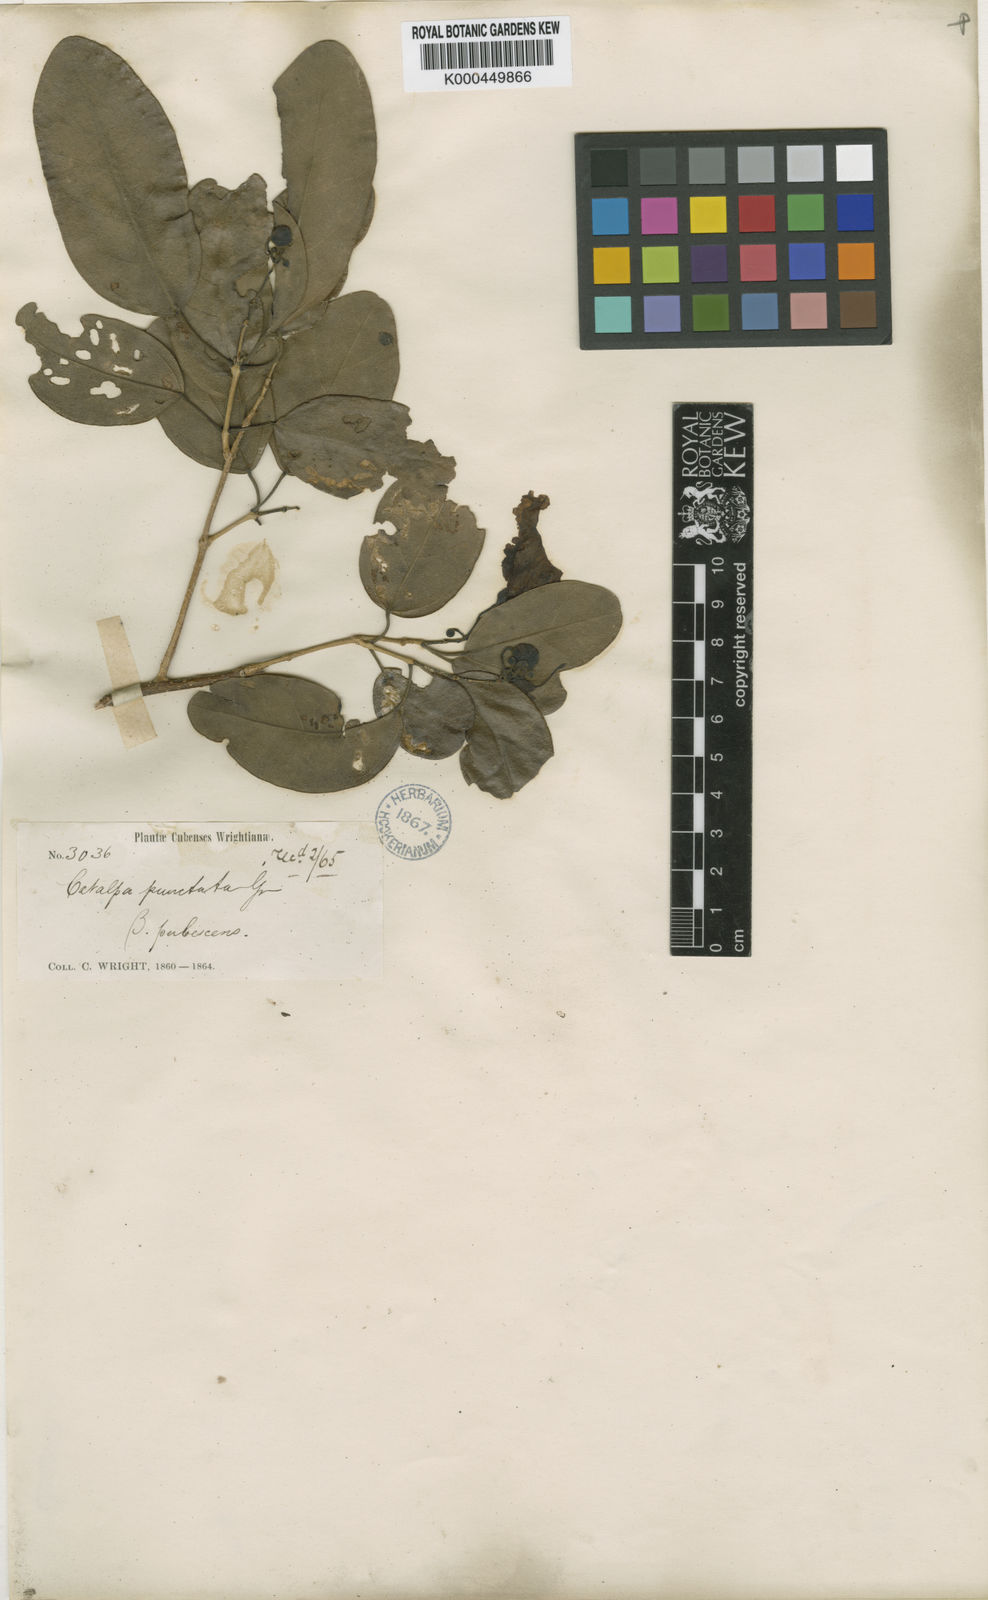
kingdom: Plantae
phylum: Tracheophyta
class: Magnoliopsida
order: Lamiales
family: Bignoniaceae
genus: Catalpa
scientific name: Catalpa macrocarpa
